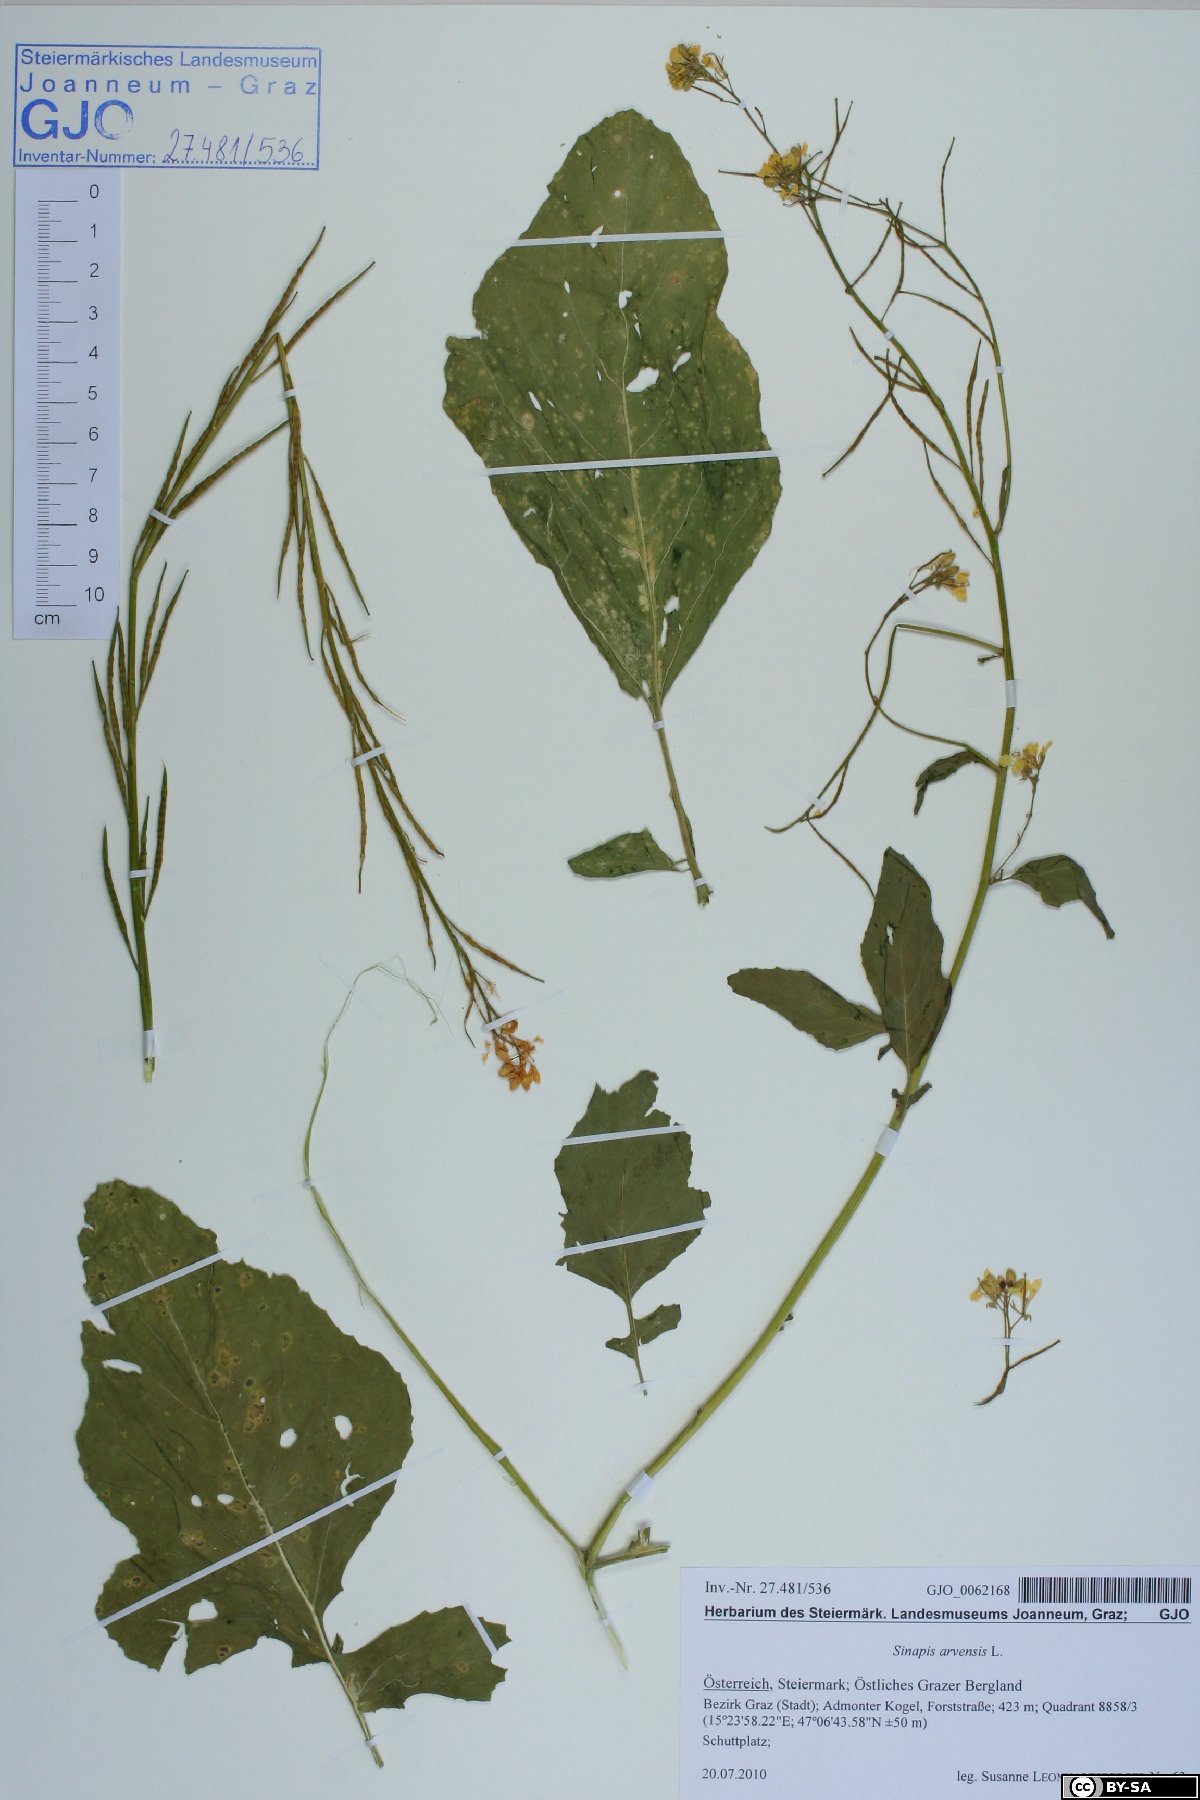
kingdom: Plantae
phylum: Tracheophyta
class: Magnoliopsida
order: Brassicales
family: Brassicaceae
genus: Sinapis
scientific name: Sinapis arvensis
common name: Charlock
